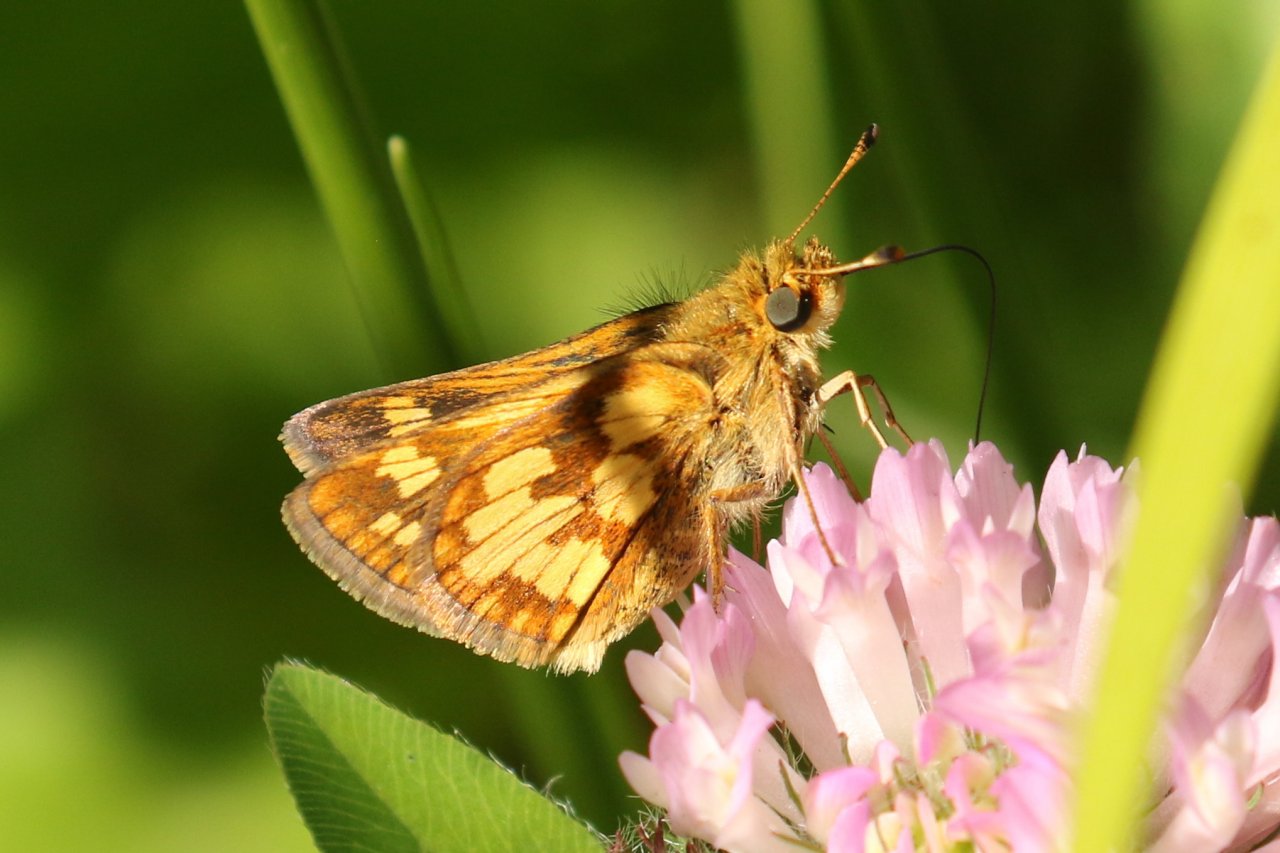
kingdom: Animalia
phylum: Arthropoda
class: Insecta
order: Lepidoptera
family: Hesperiidae
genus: Polites
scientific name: Polites coras
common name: Peck's Skipper
